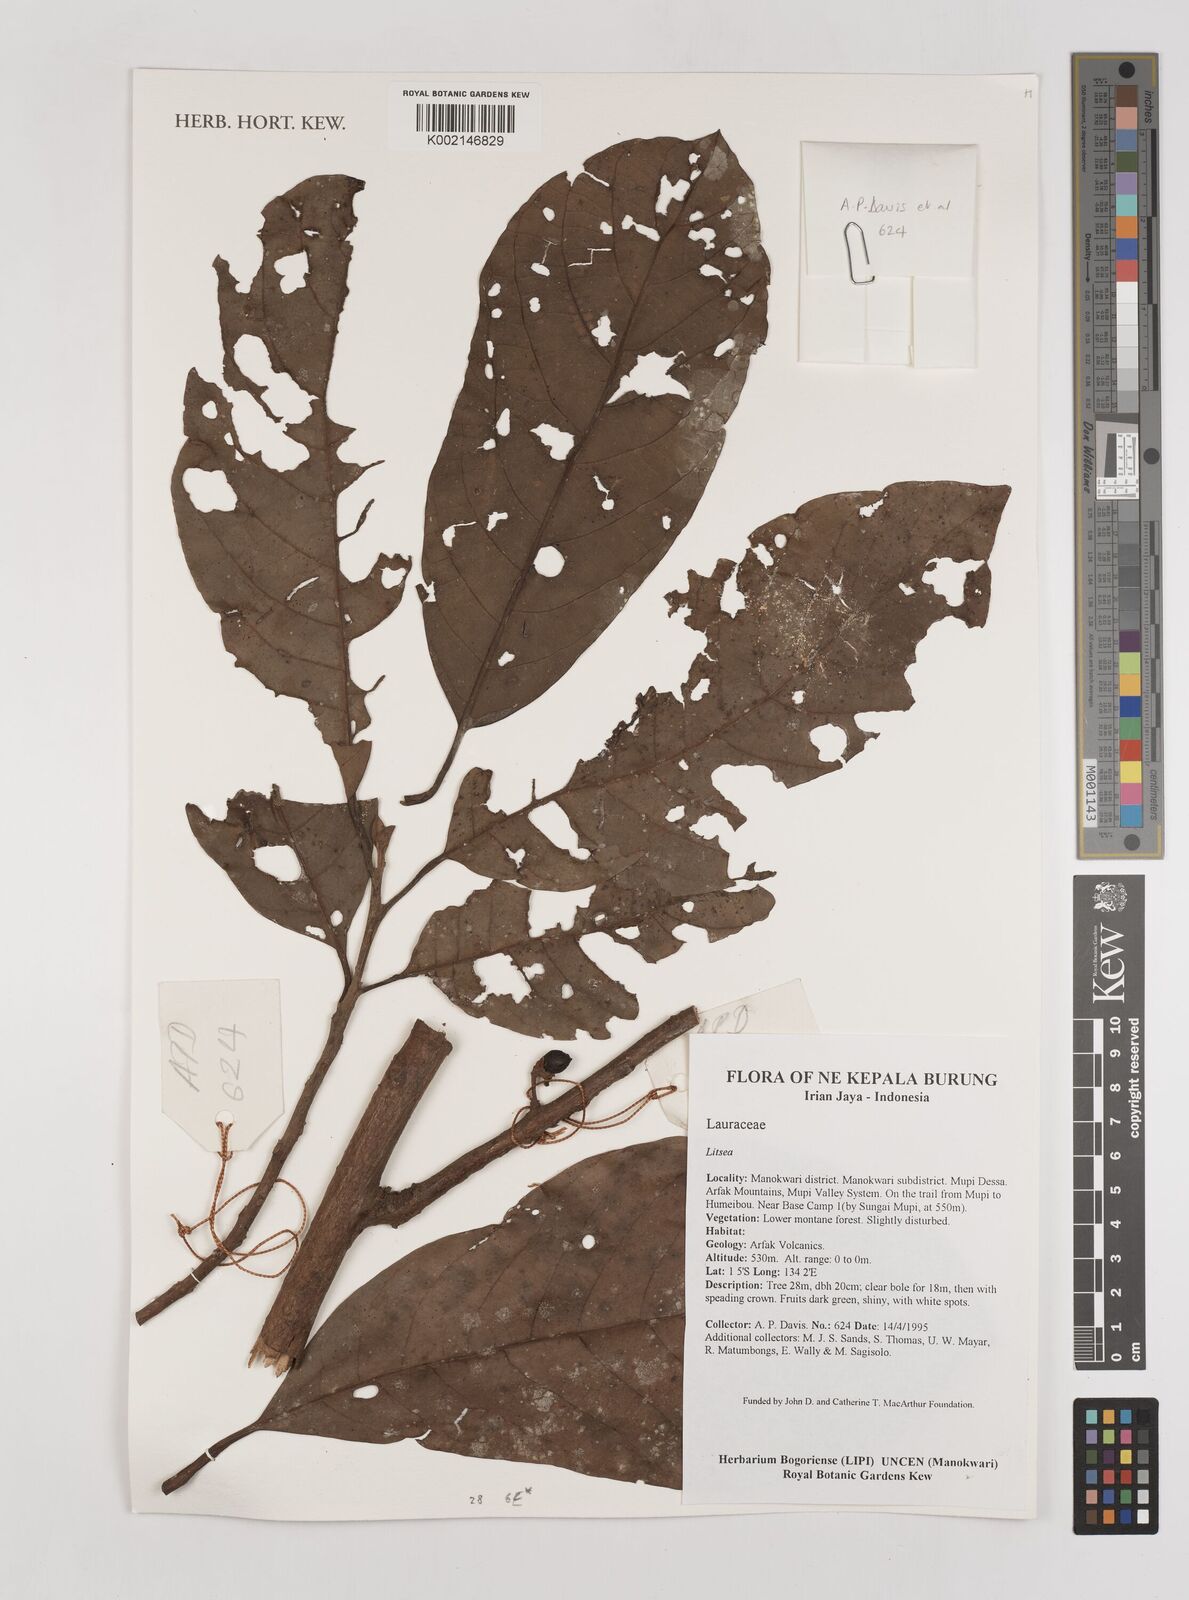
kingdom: Plantae
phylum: Tracheophyta
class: Magnoliopsida
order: Laurales
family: Lauraceae
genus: Litsea
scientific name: Litsea
